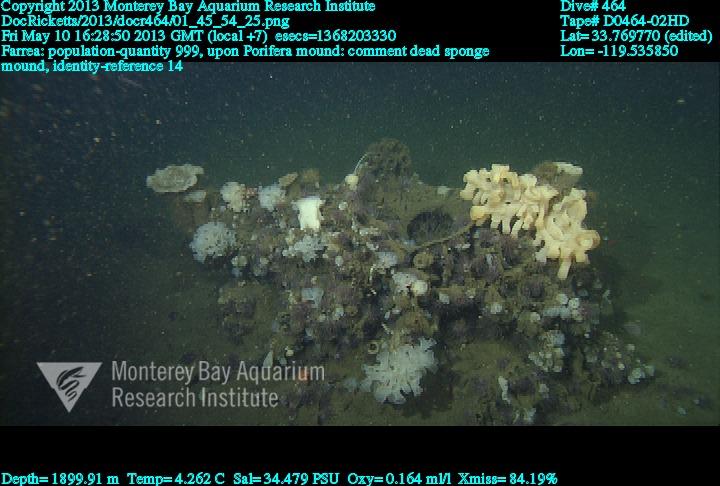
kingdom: Animalia
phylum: Porifera
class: Hexactinellida
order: Sceptrulophora
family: Farreidae
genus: Farrea
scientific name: Farrea
